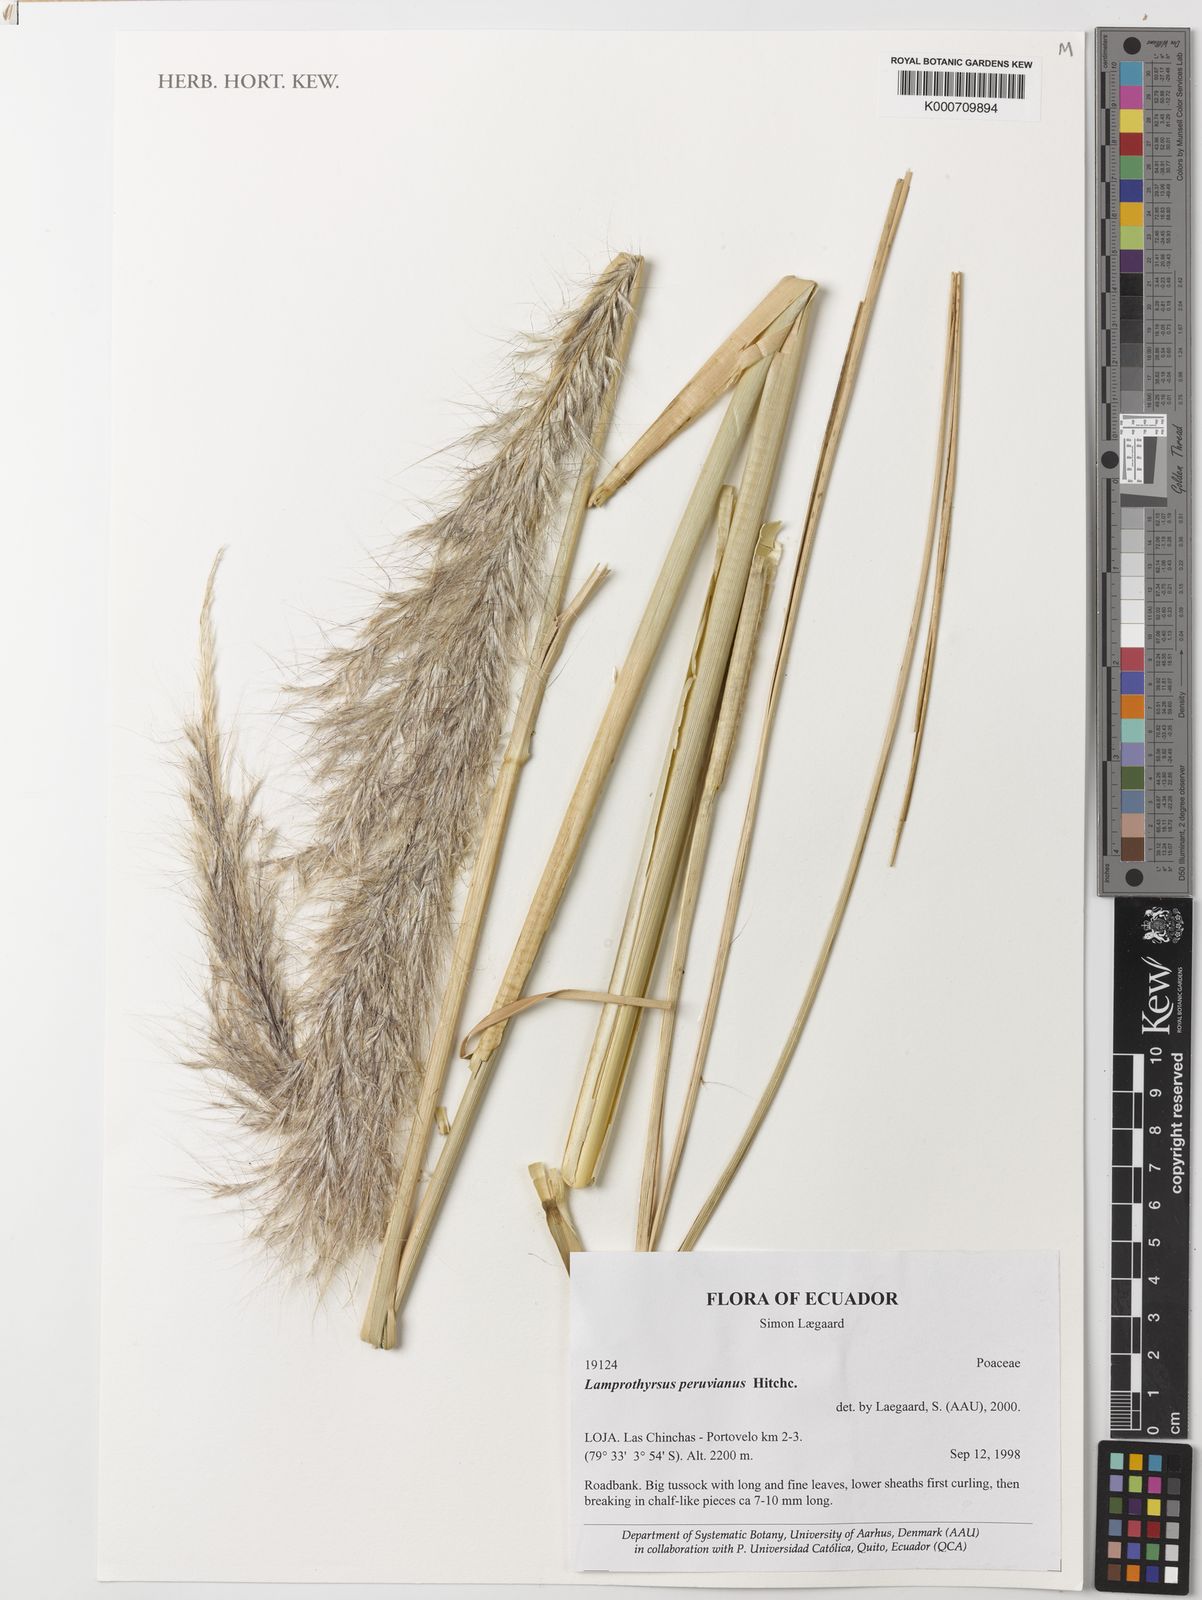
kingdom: Plantae
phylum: Tracheophyta
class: Liliopsida
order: Poales
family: Poaceae
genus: Cortaderia
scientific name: Cortaderia hieronymi
